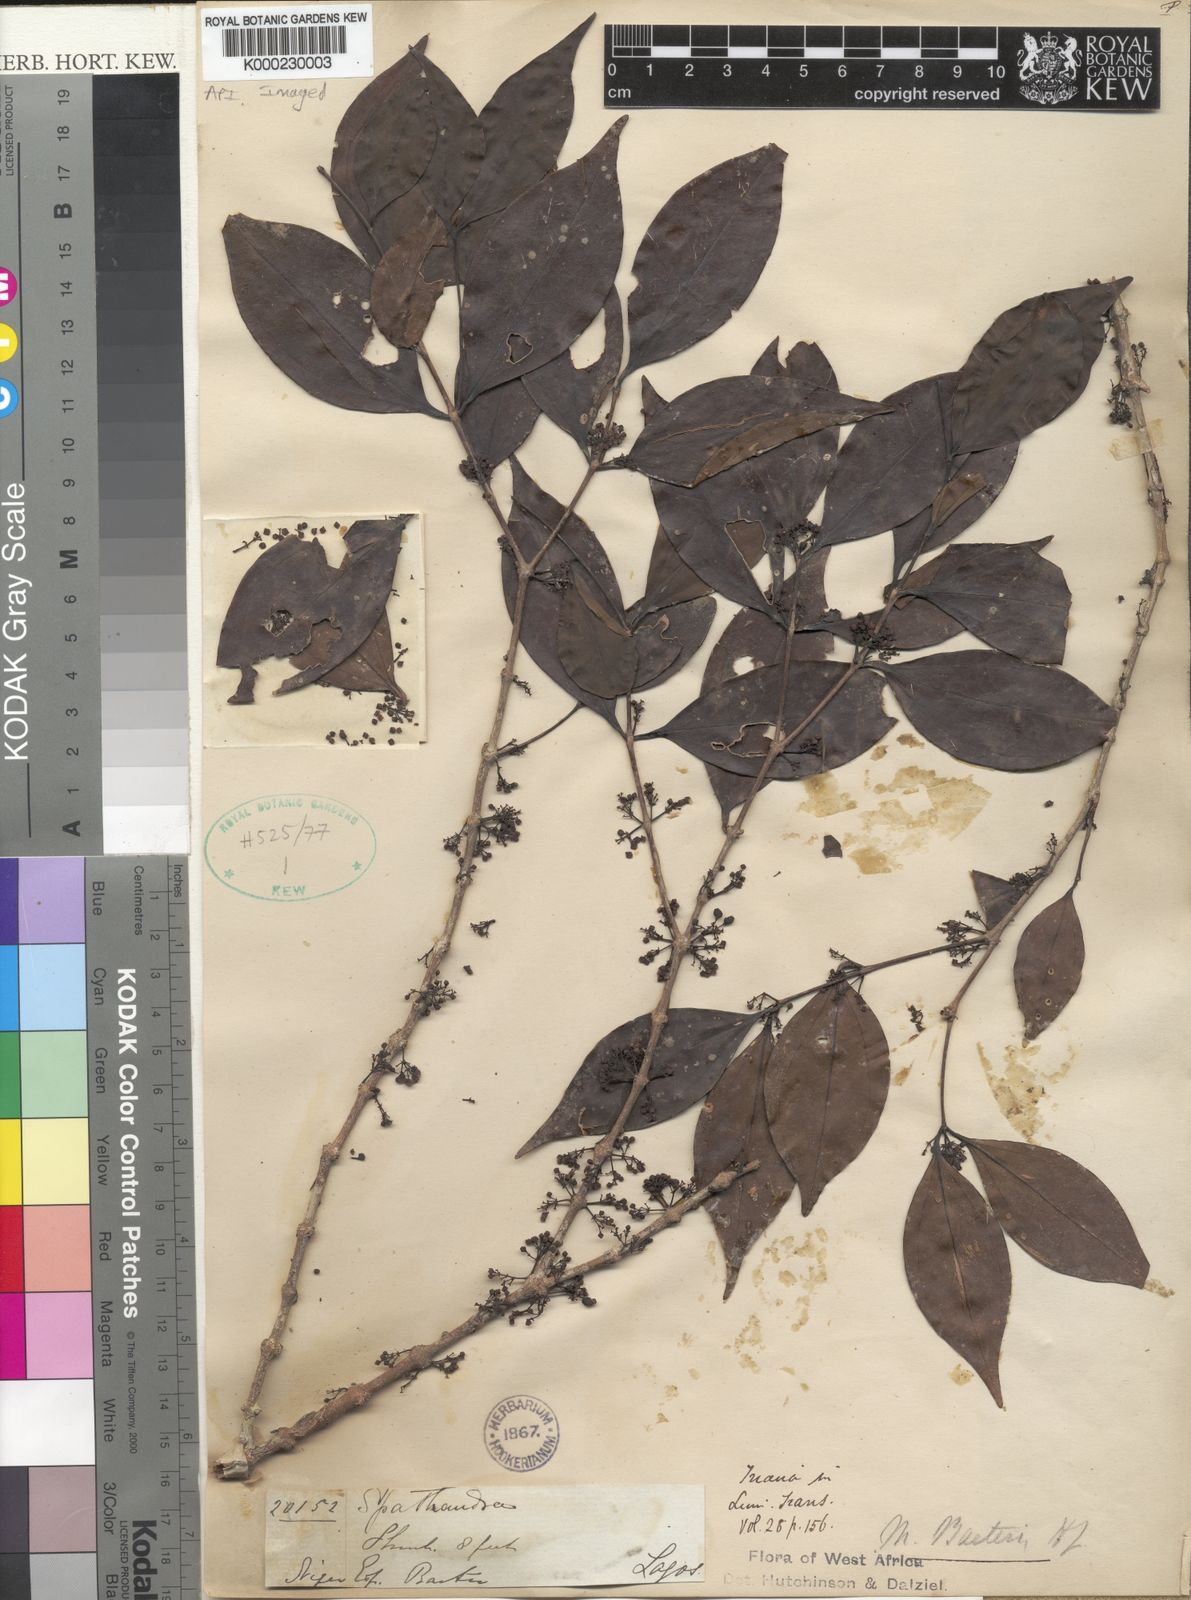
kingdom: Plantae
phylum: Tracheophyta
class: Magnoliopsida
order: Myrtales
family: Melastomataceae
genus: Lijndenia
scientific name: Lijndenia barteri
